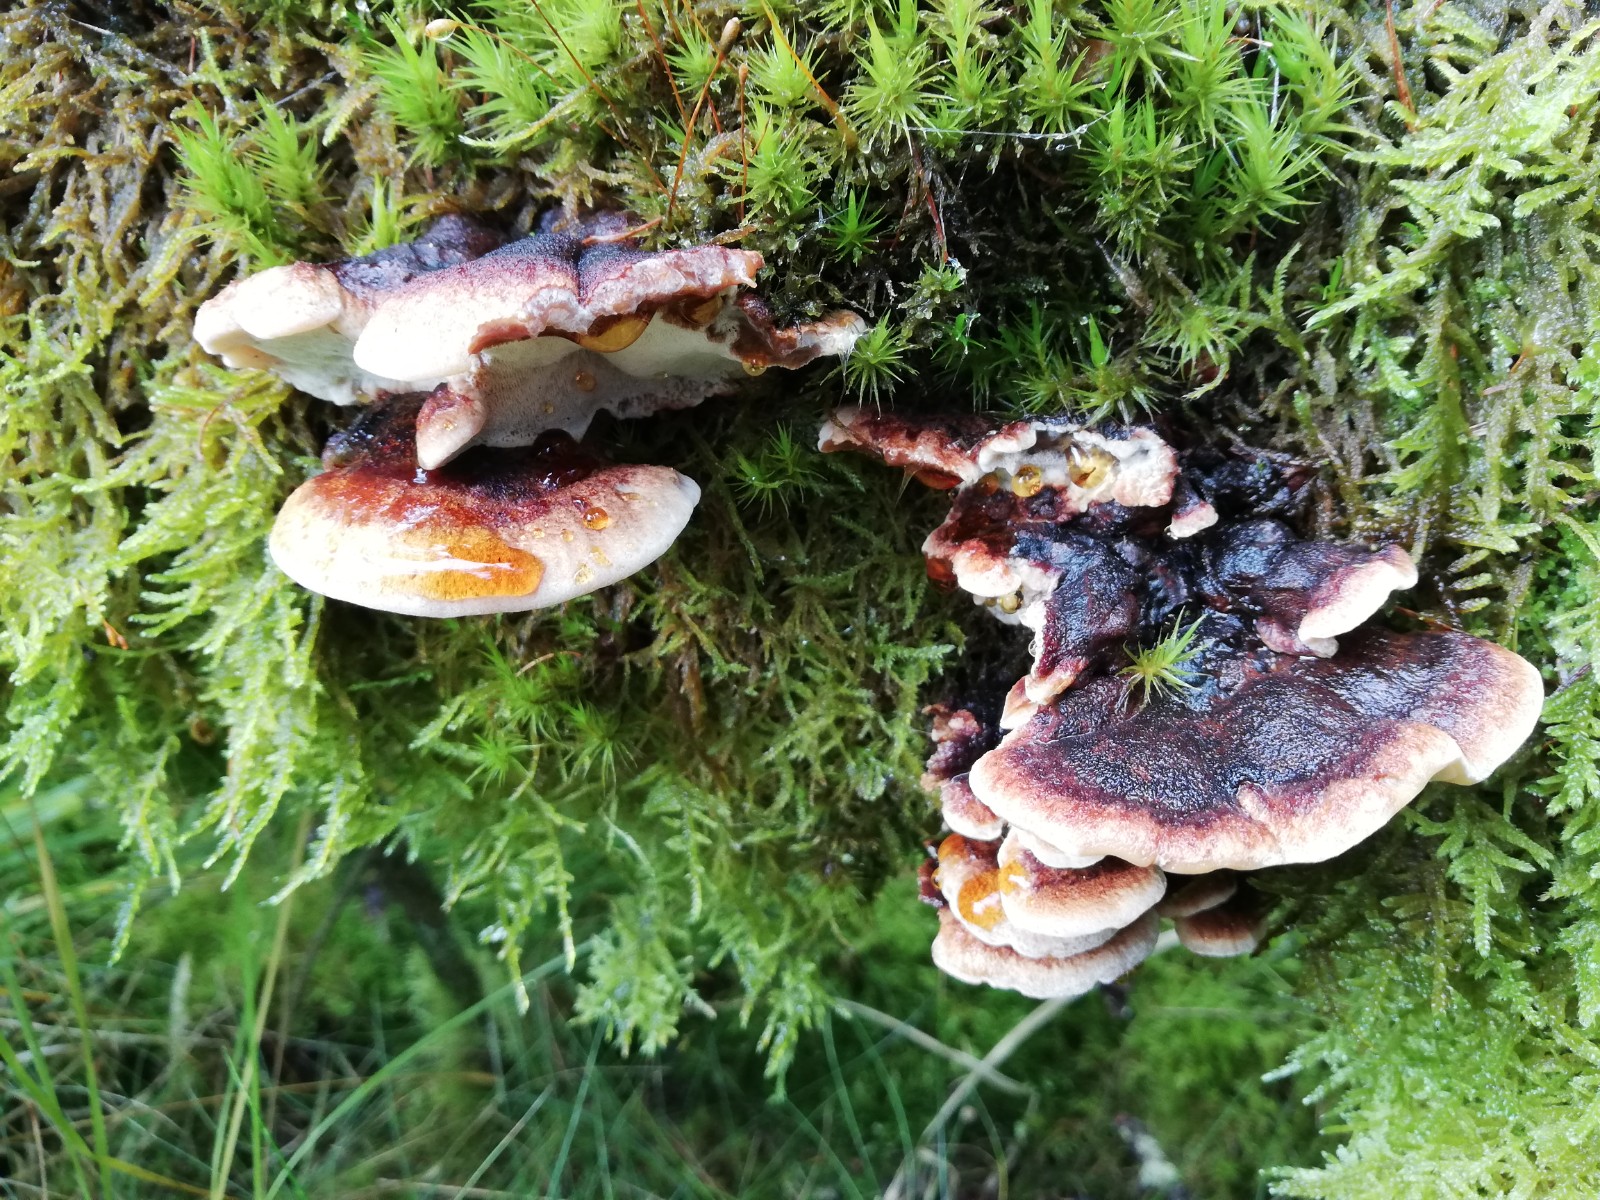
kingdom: Fungi
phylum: Basidiomycota
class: Agaricomycetes
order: Polyporales
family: Ischnodermataceae
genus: Ischnoderma
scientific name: Ischnoderma benzoinum
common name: gran-tjæreporesvamp
